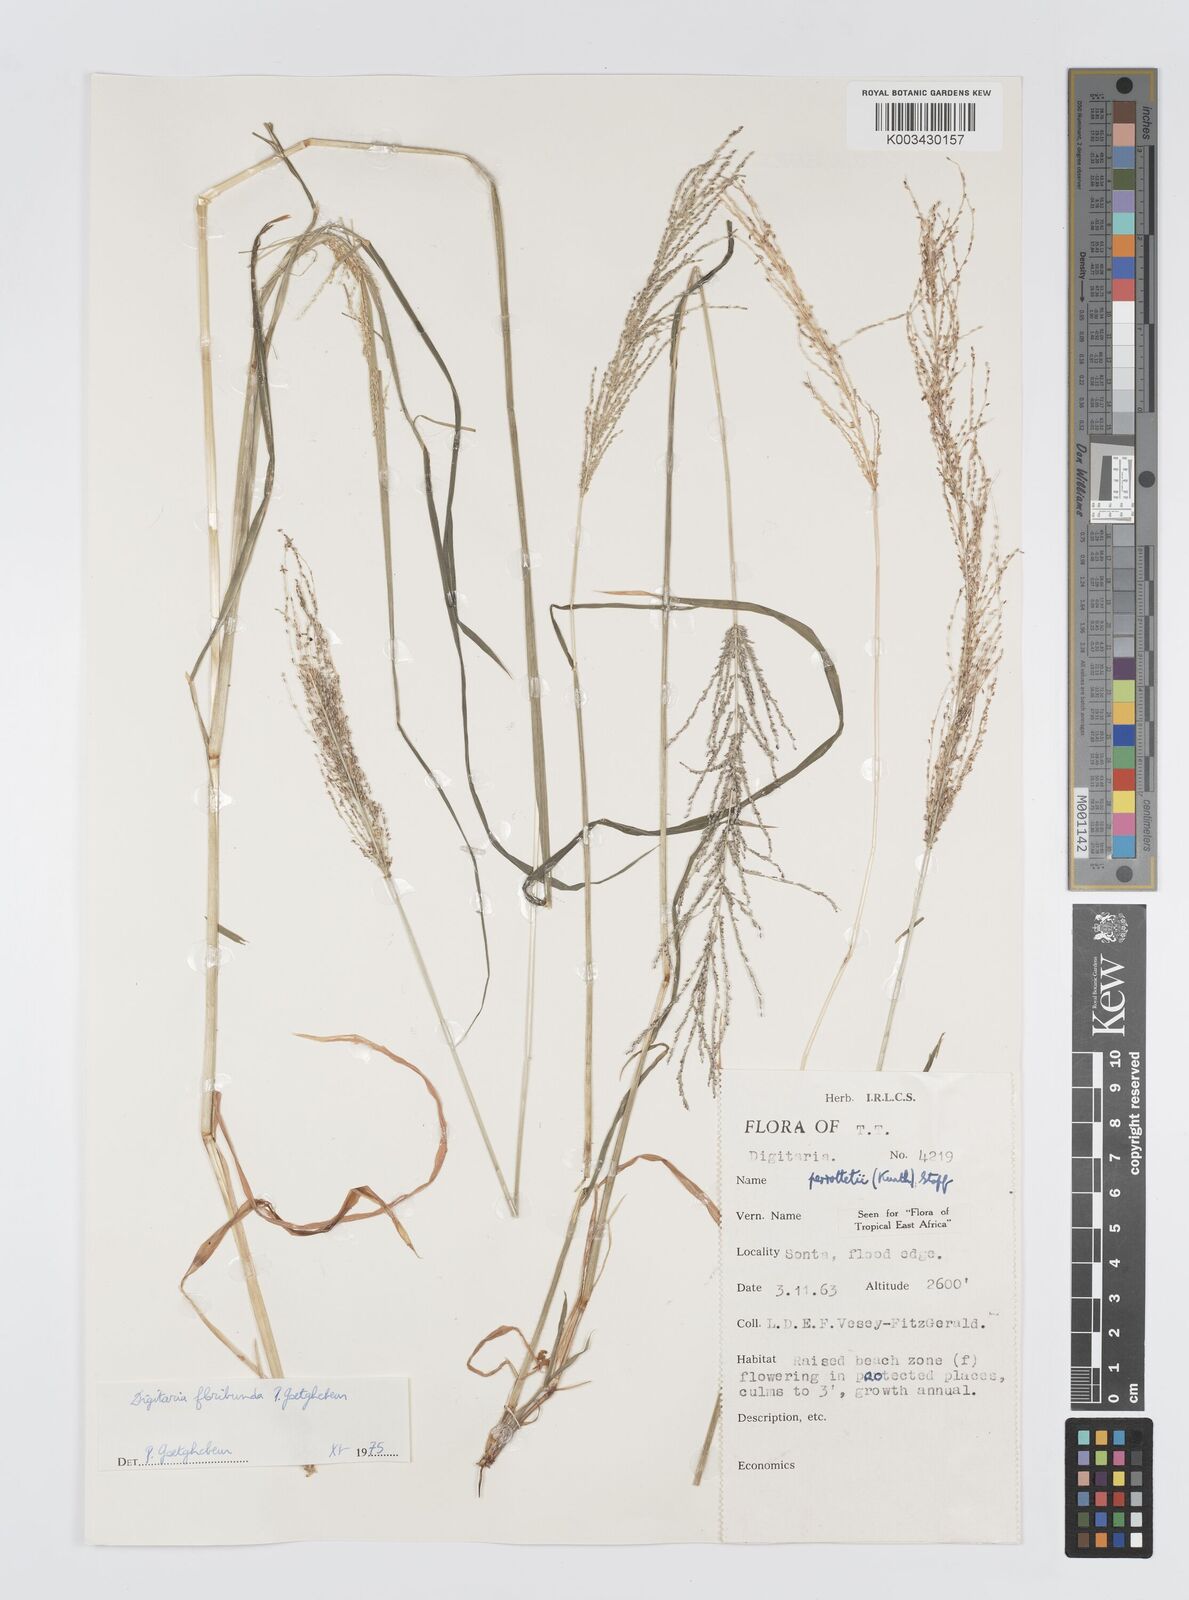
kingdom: Plantae
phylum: Tracheophyta
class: Liliopsida
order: Poales
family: Poaceae
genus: Digitaria
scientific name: Digitaria perrottetii
